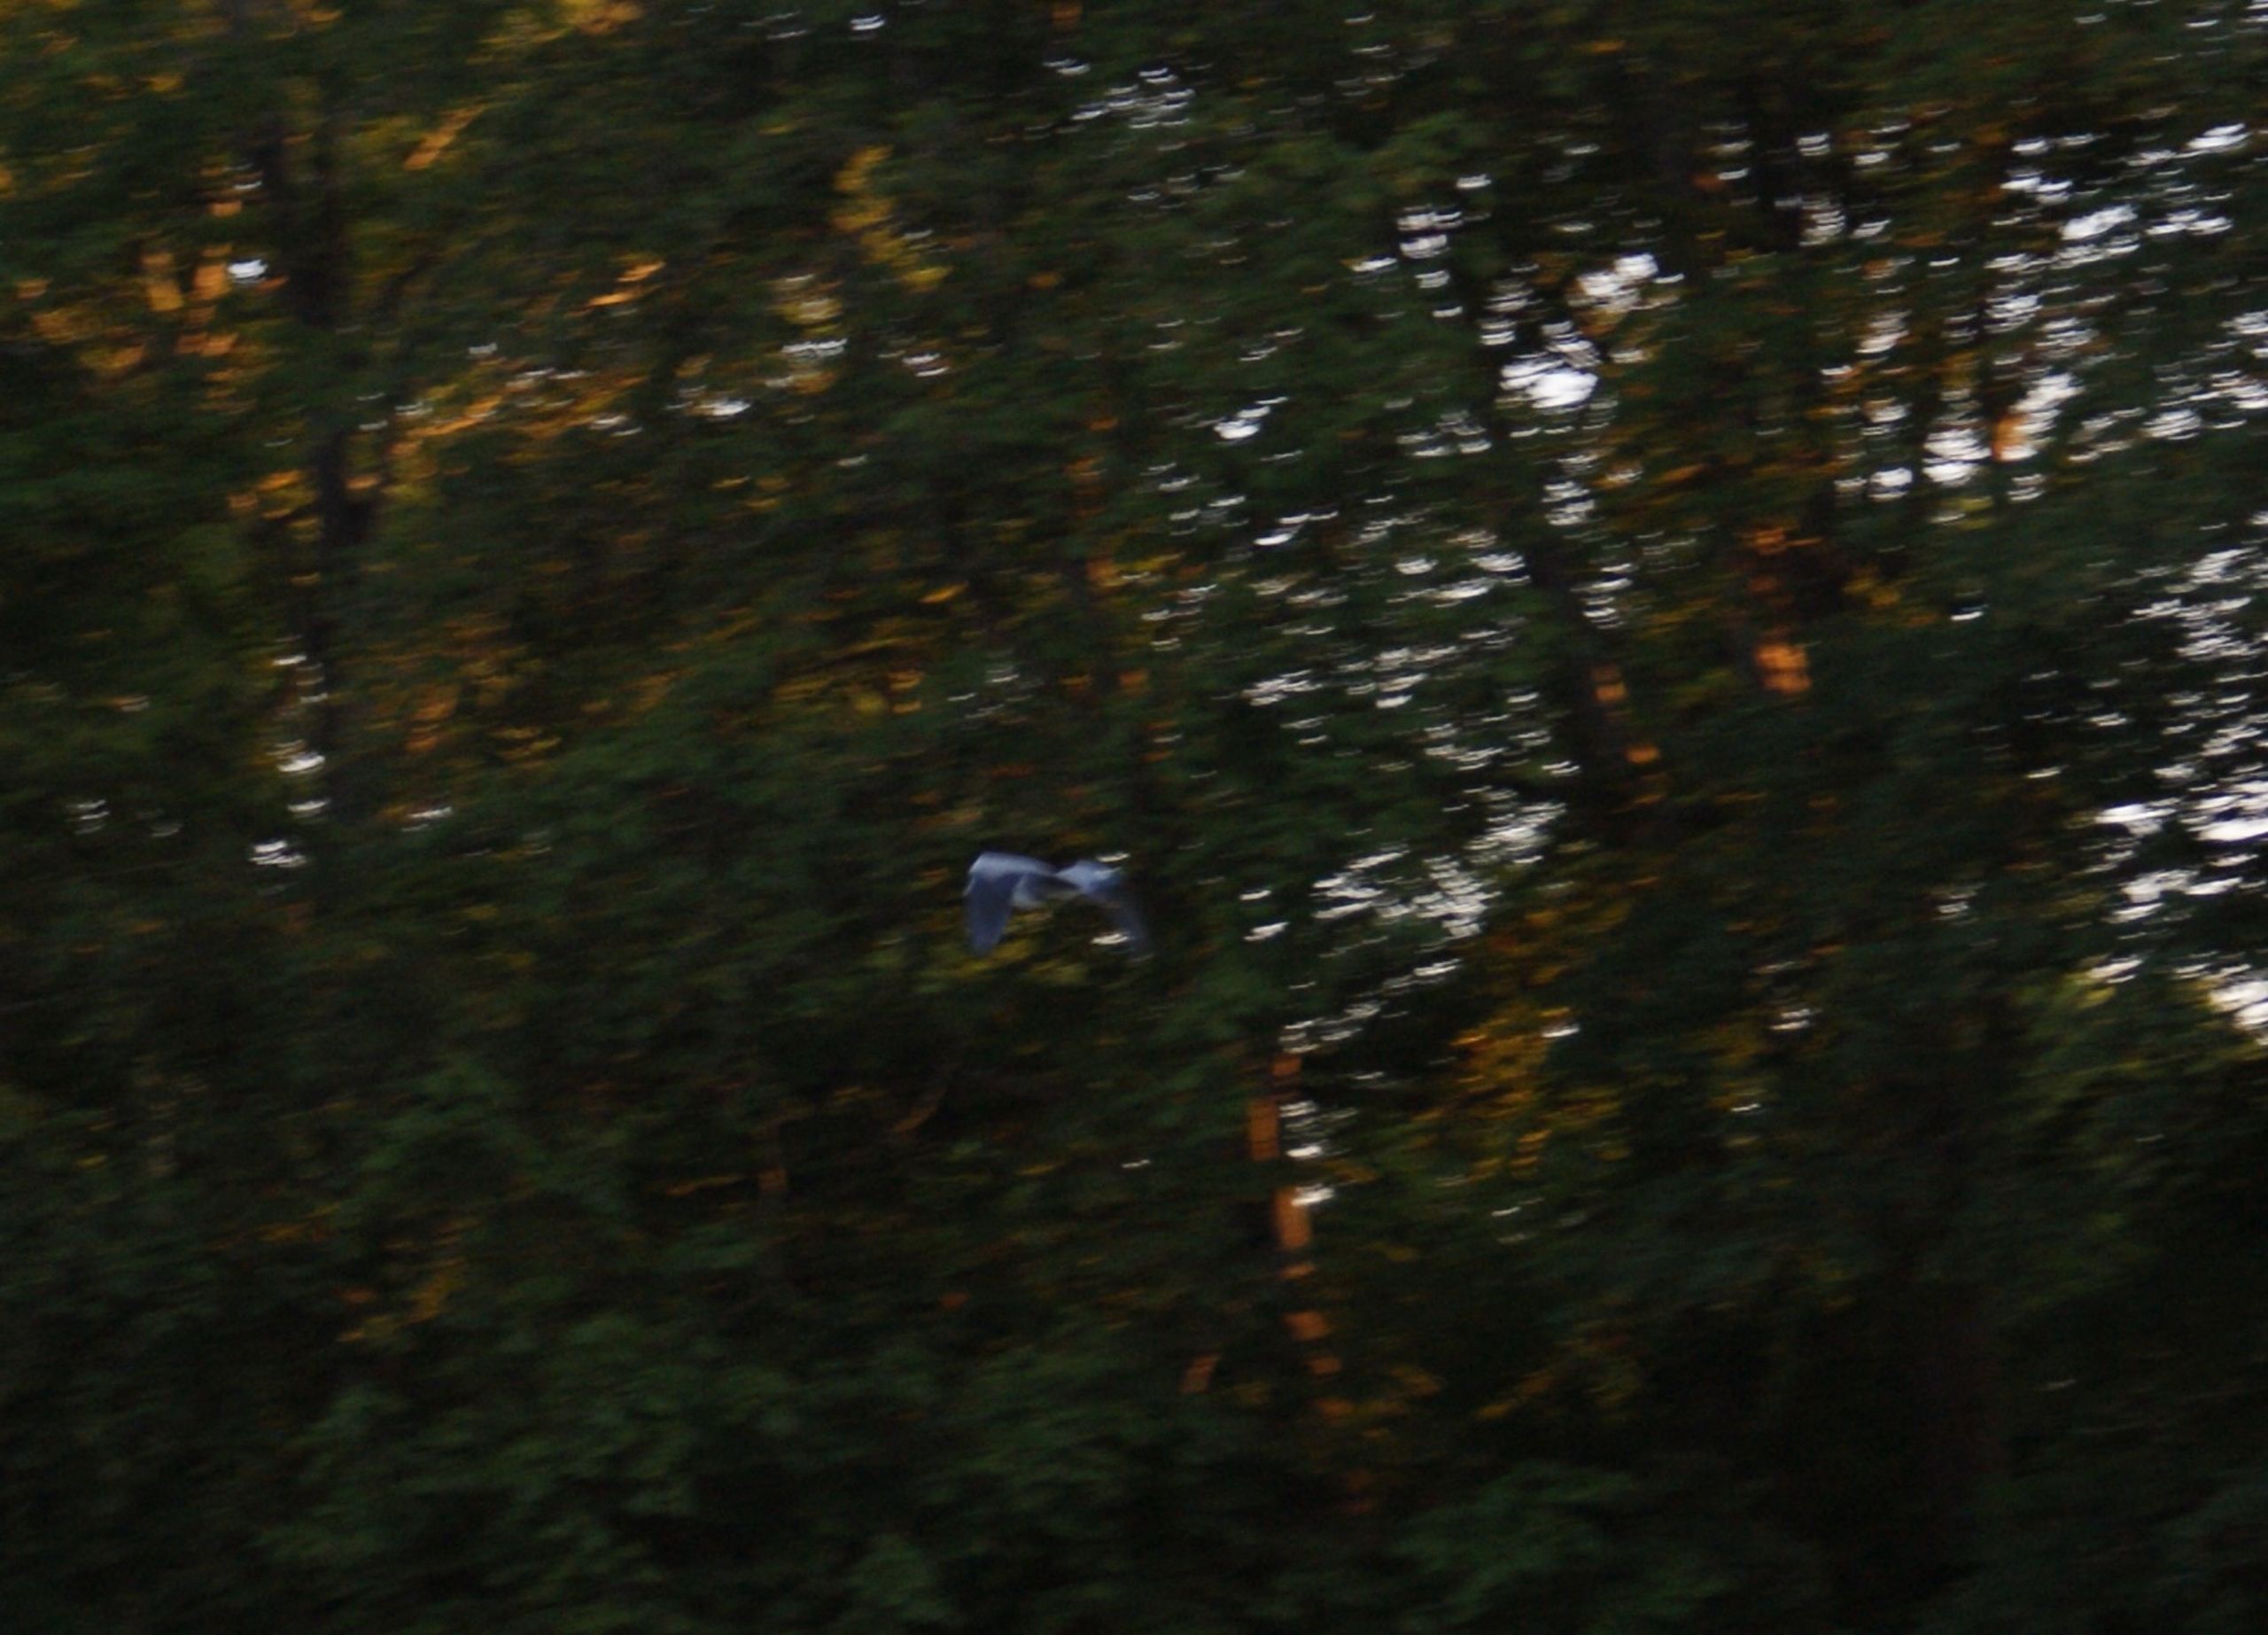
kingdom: Animalia
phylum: Chordata
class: Aves
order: Pelecaniformes
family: Ardeidae
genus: Ardea
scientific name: Ardea cinerea
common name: Fiskehejre
